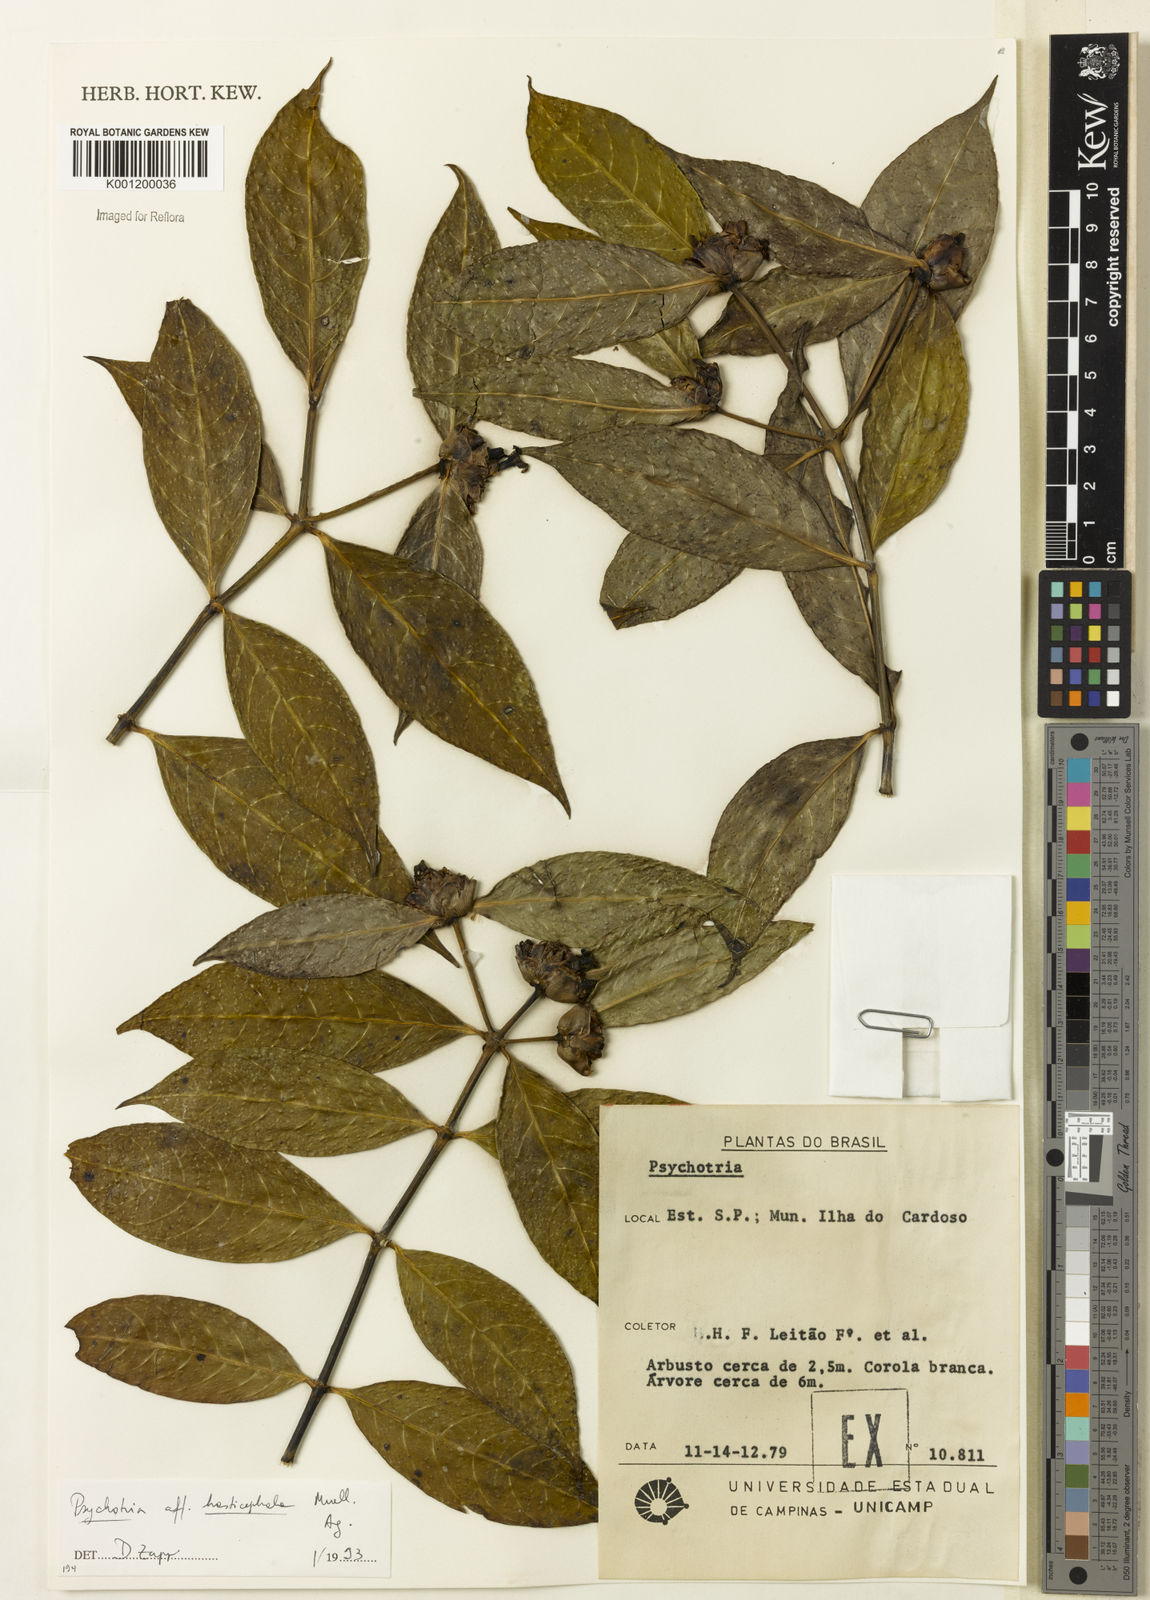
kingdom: Plantae
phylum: Tracheophyta
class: Magnoliopsida
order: Gentianales
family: Rubiaceae
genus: Psychotria
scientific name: Psychotria
